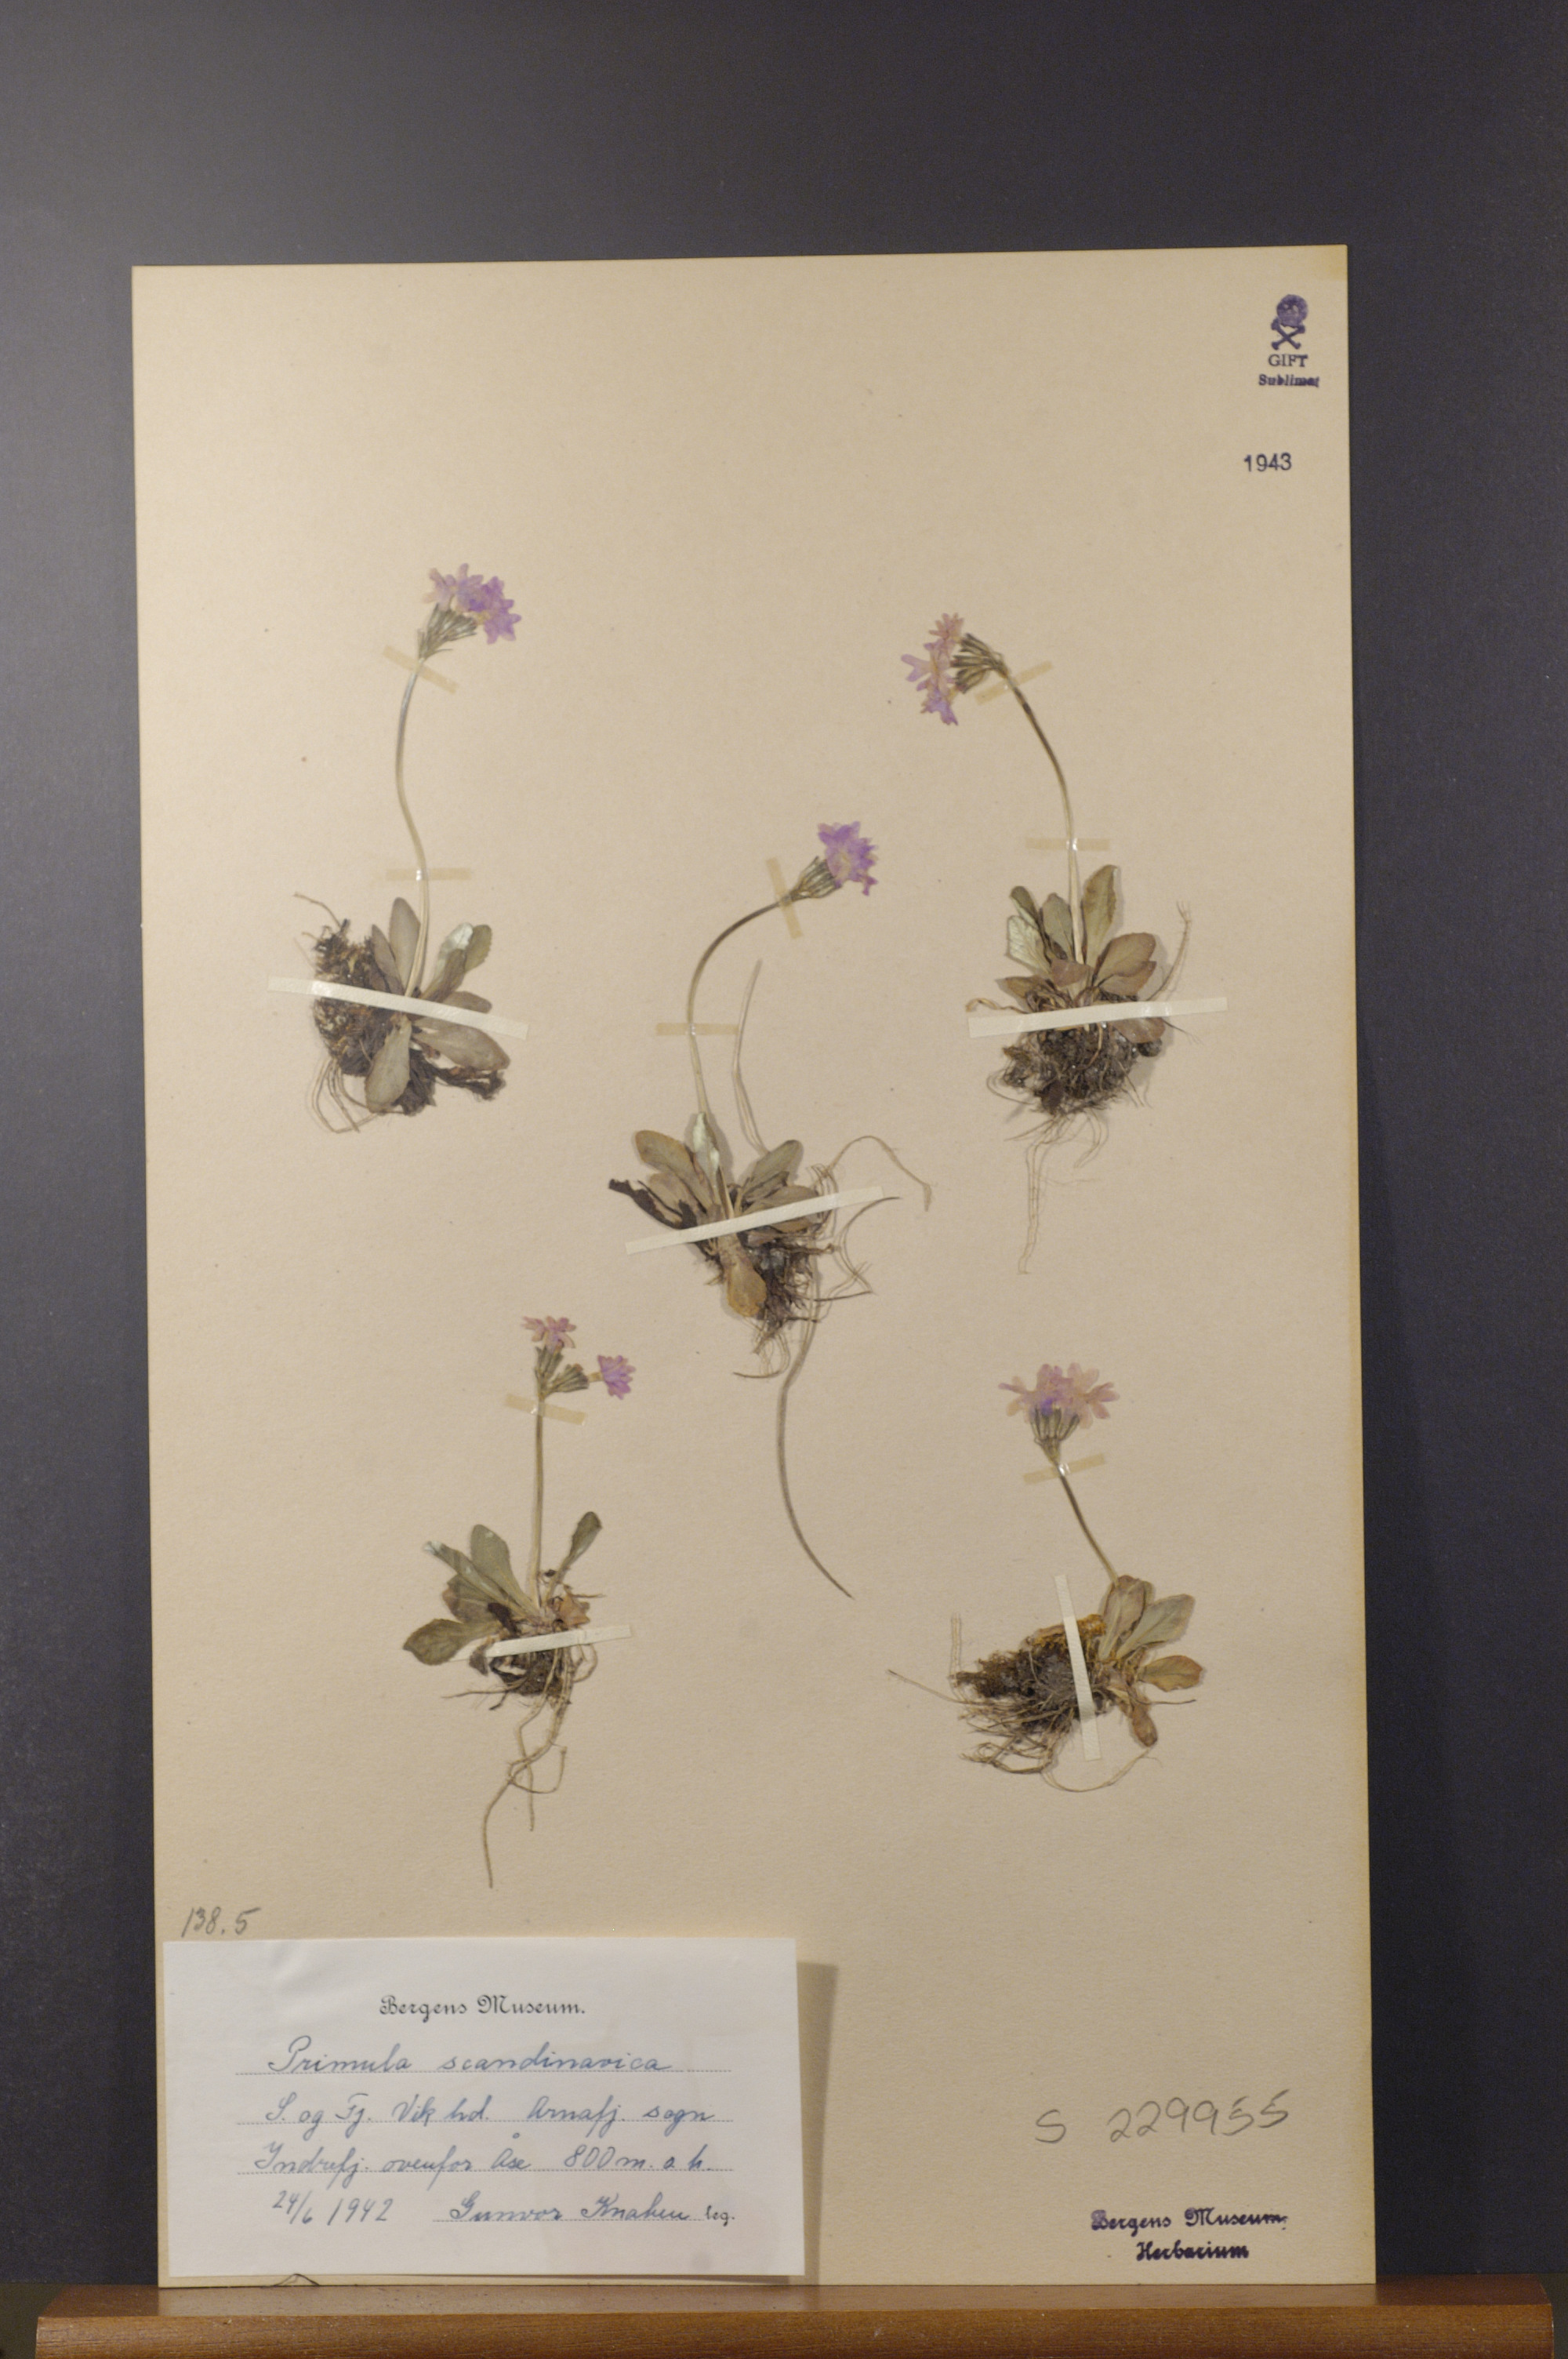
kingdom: Plantae
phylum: Tracheophyta
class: Magnoliopsida
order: Ericales
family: Primulaceae
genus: Primula
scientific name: Primula scandinavica
